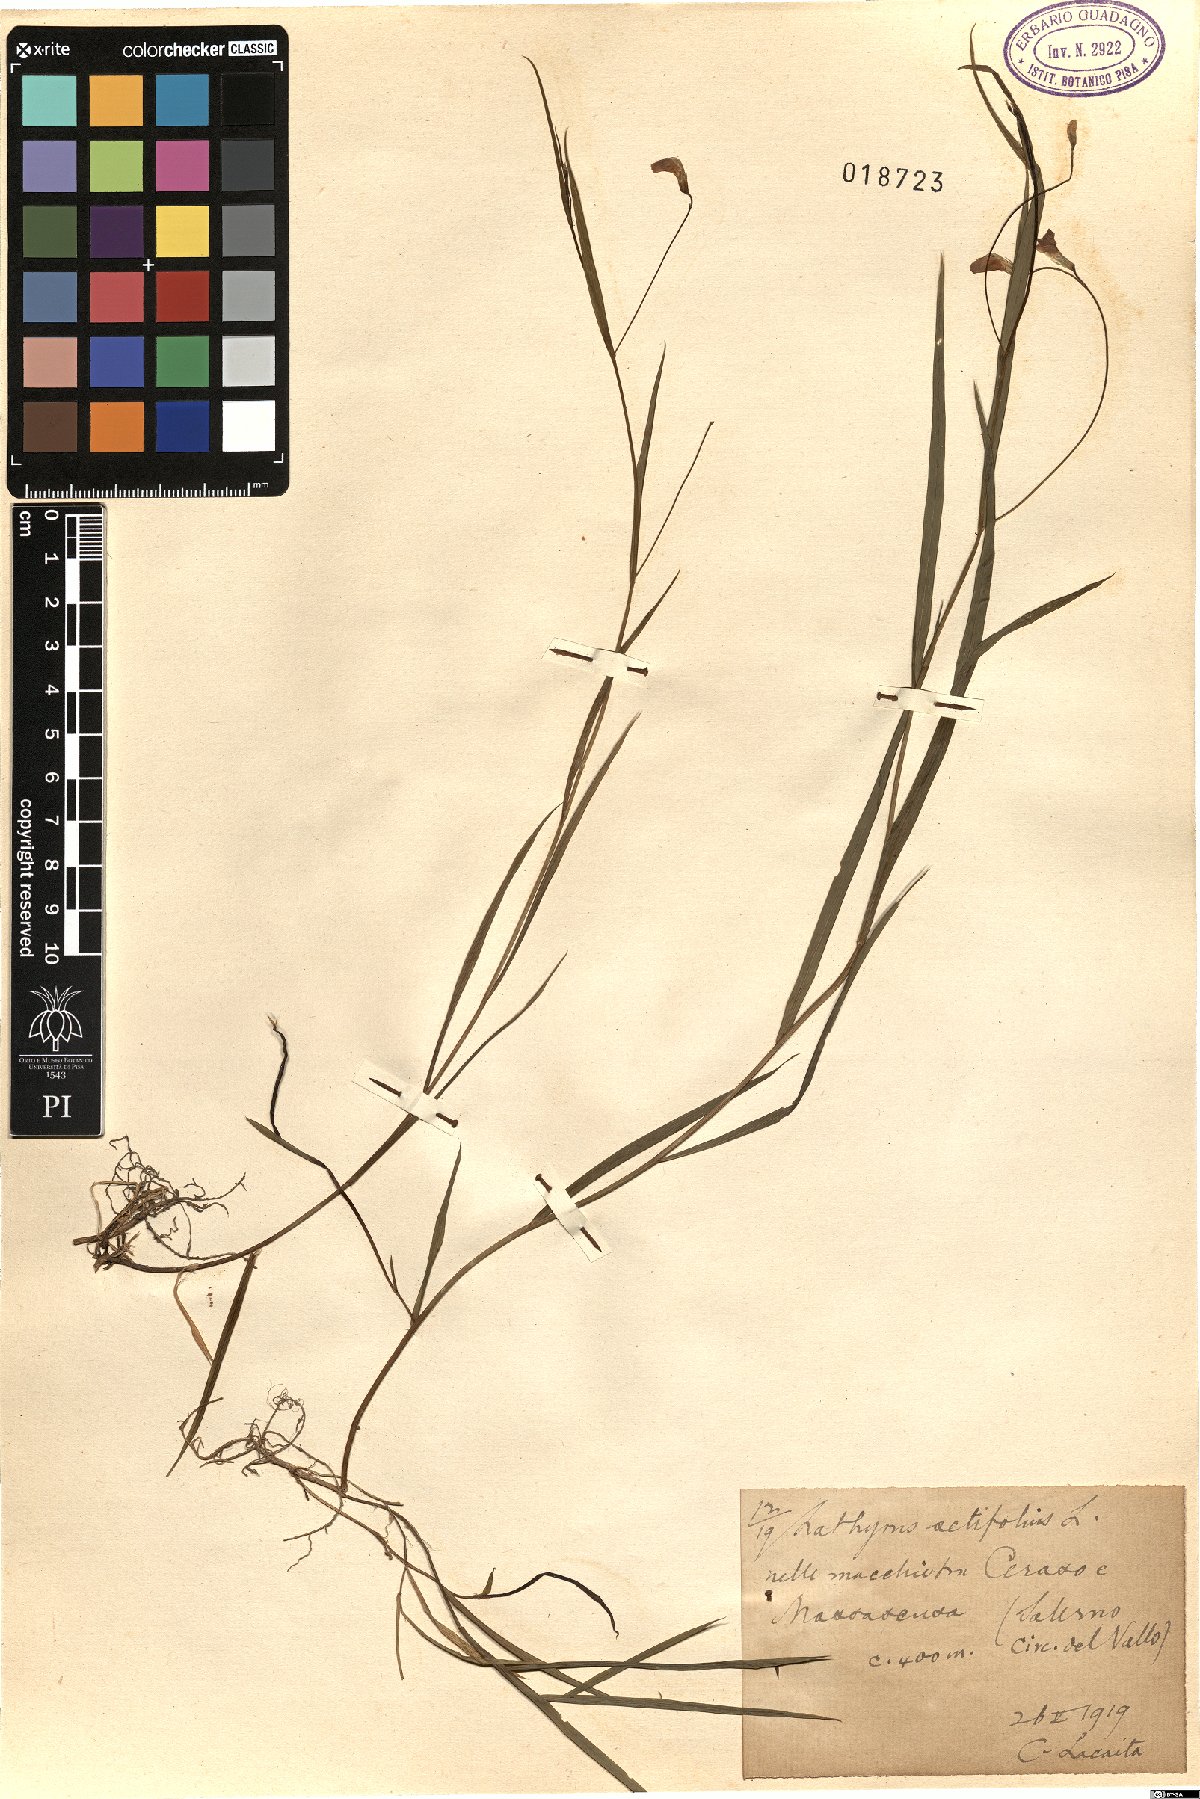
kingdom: Plantae
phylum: Tracheophyta
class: Magnoliopsida
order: Fabales
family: Fabaceae
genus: Lathyrus
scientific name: Lathyrus setifolius
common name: Brown vetchling
